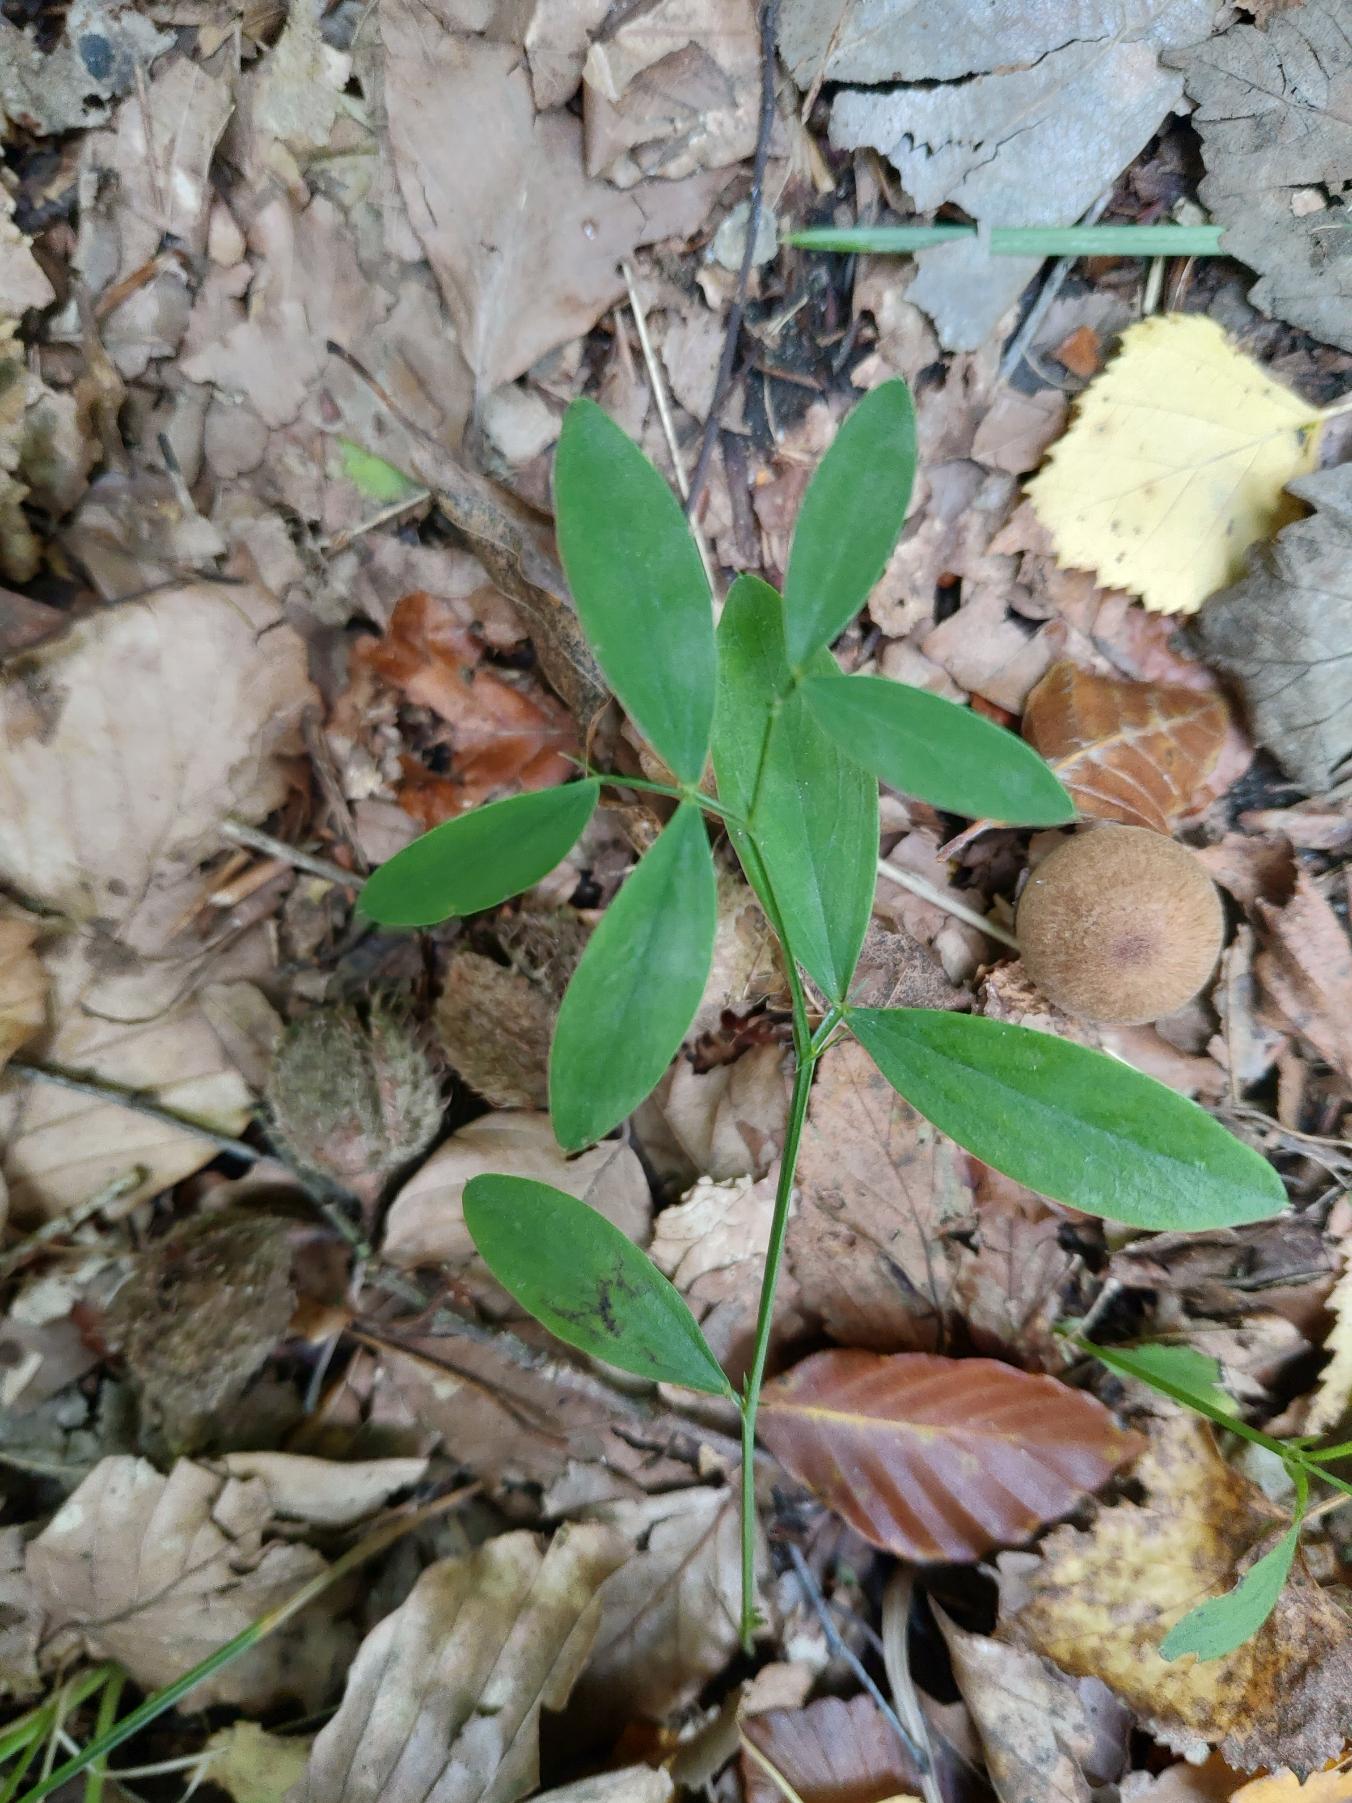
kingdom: Plantae
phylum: Tracheophyta
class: Magnoliopsida
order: Fabales
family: Fabaceae
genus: Lathyrus
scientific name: Lathyrus linifolius
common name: Krat-fladbælg
